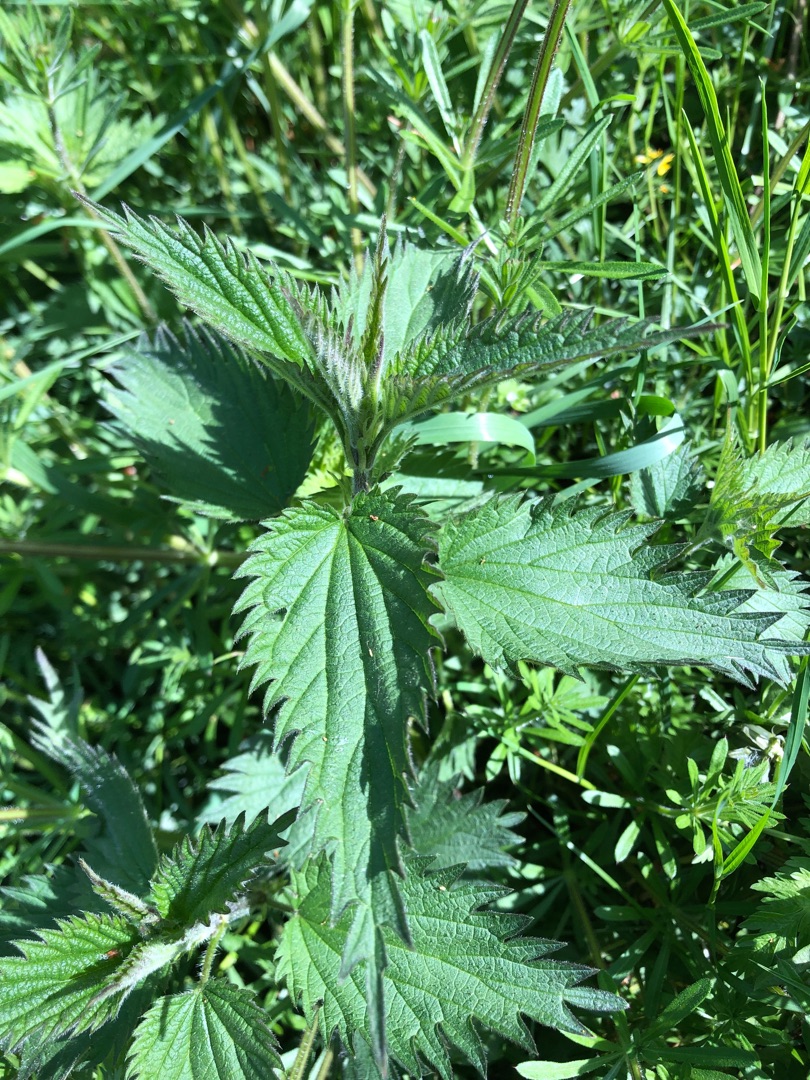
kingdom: Plantae
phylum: Tracheophyta
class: Magnoliopsida
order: Rosales
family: Urticaceae
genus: Urtica
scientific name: Urtica dioica
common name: Stor nælde
